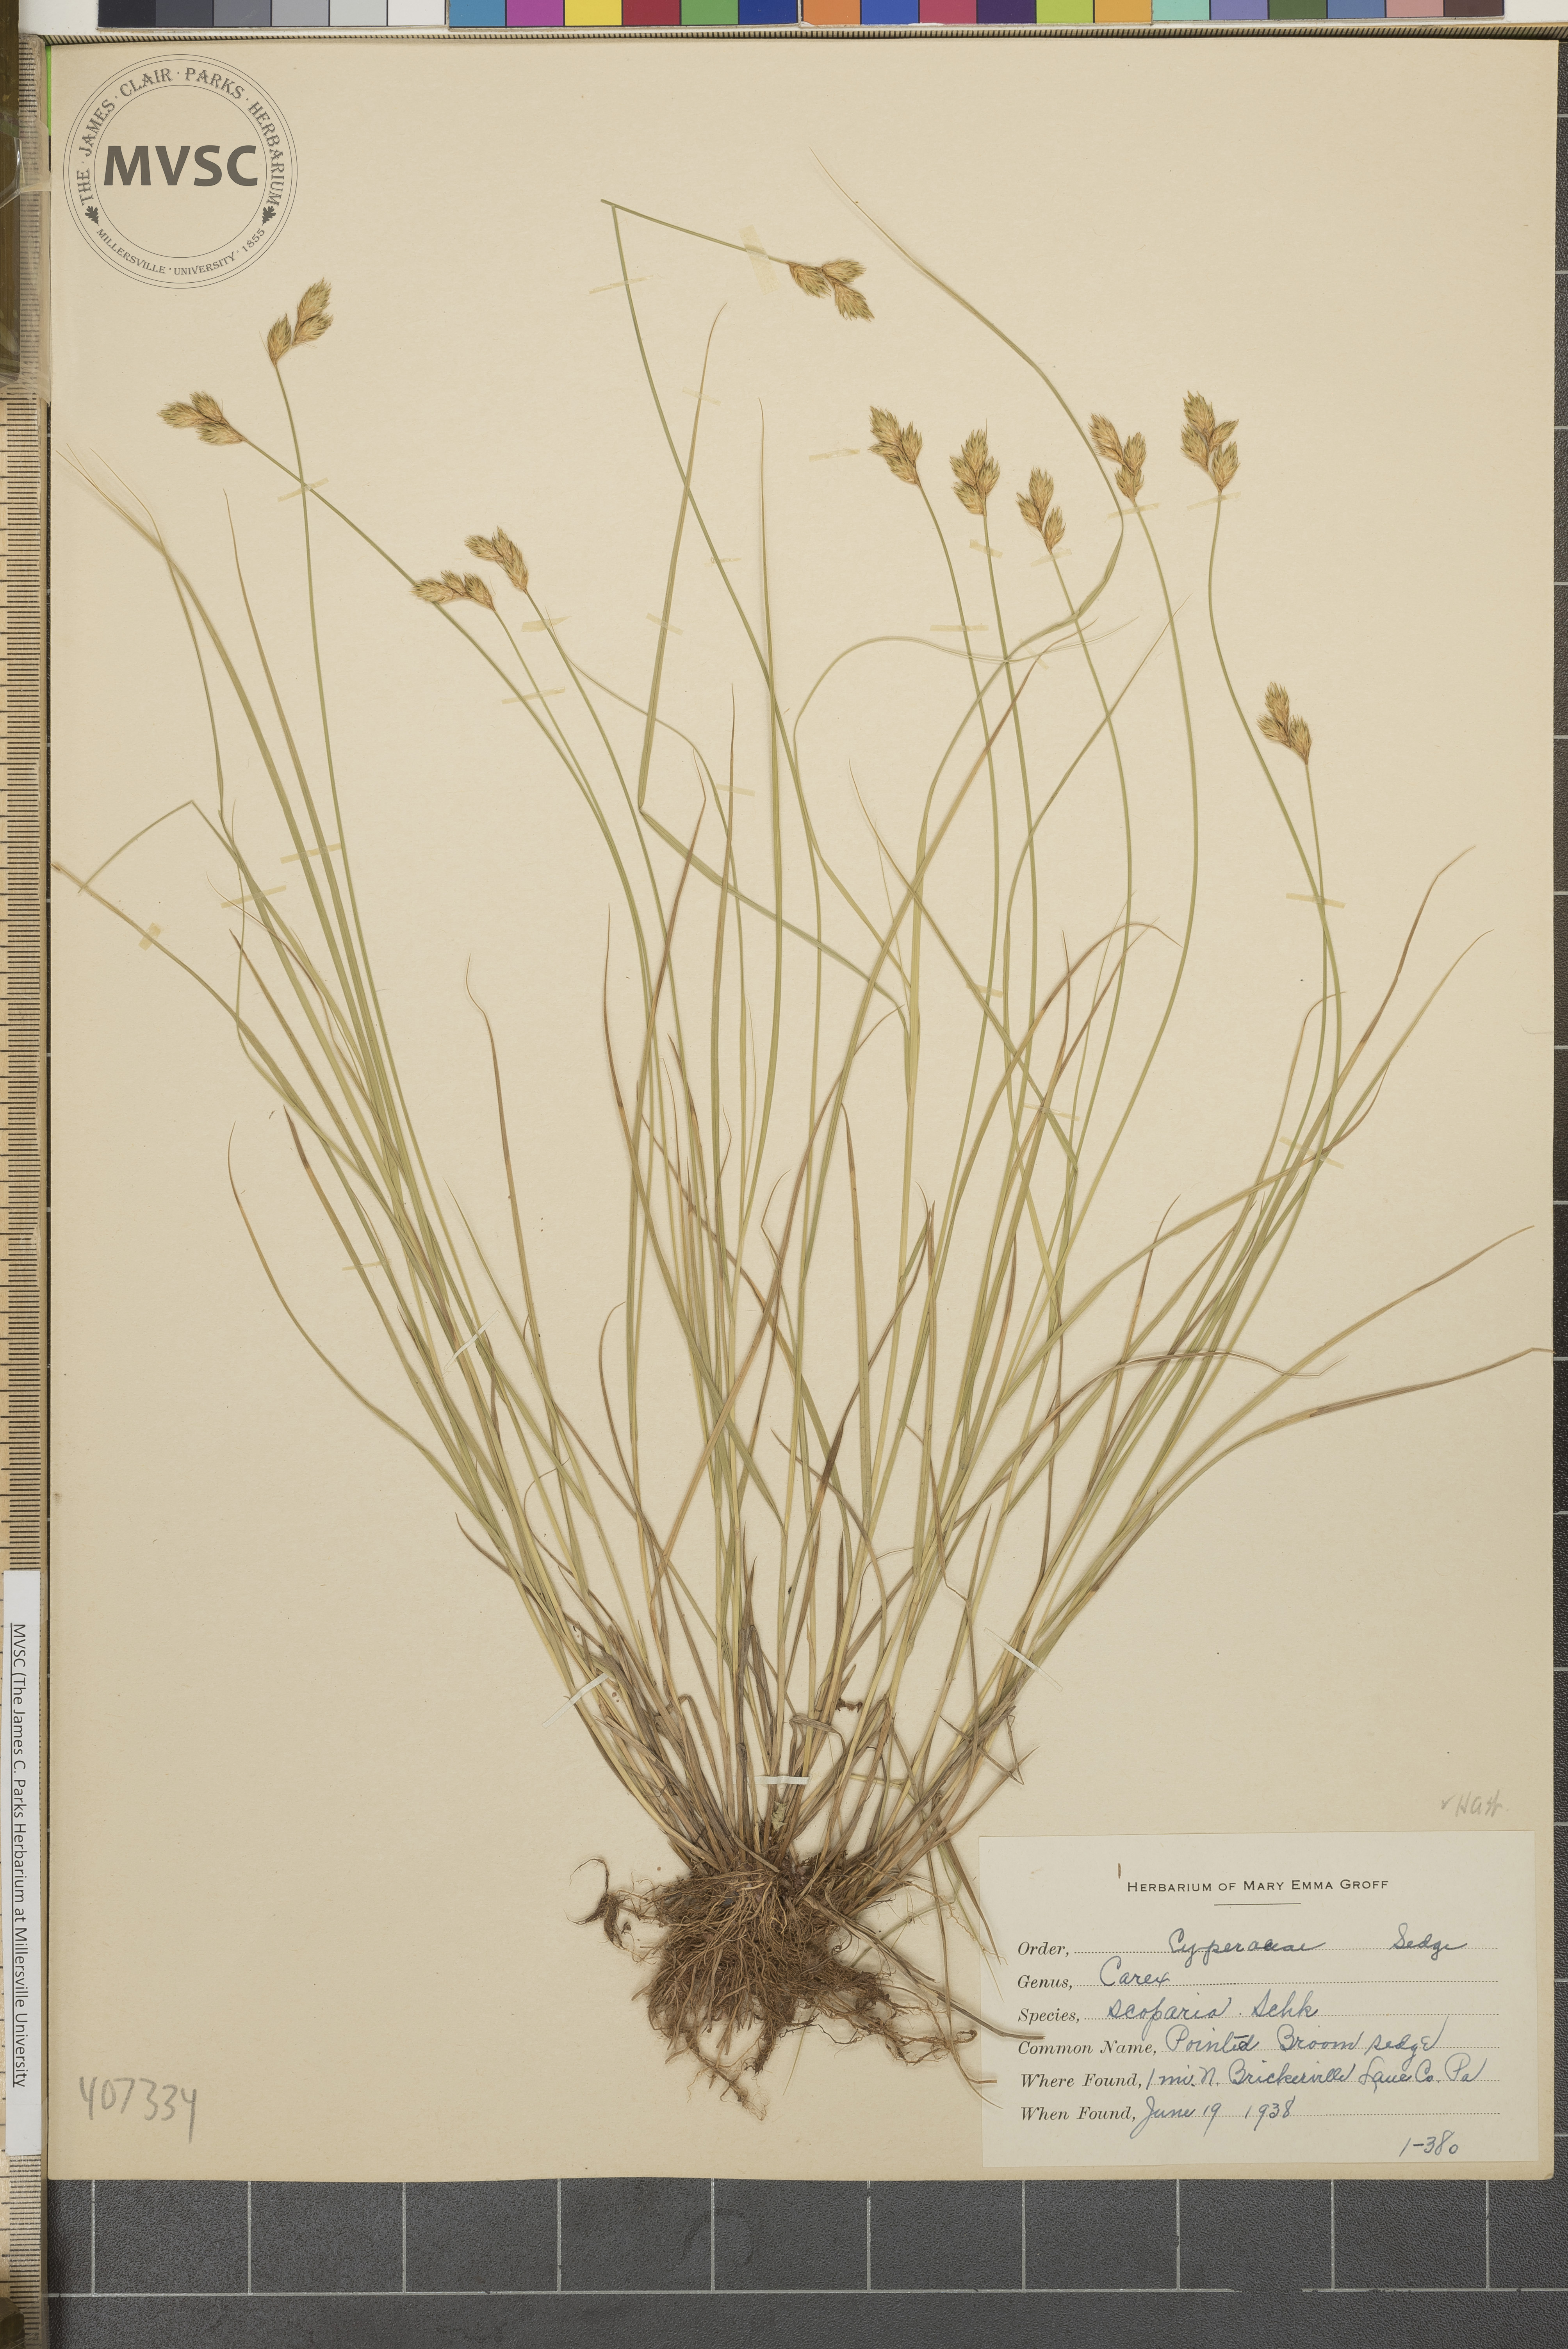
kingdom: Plantae
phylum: Tracheophyta
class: Liliopsida
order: Poales
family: Cyperaceae
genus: Carex
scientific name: Carex scoparia
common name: Pointed Broom Sedge
